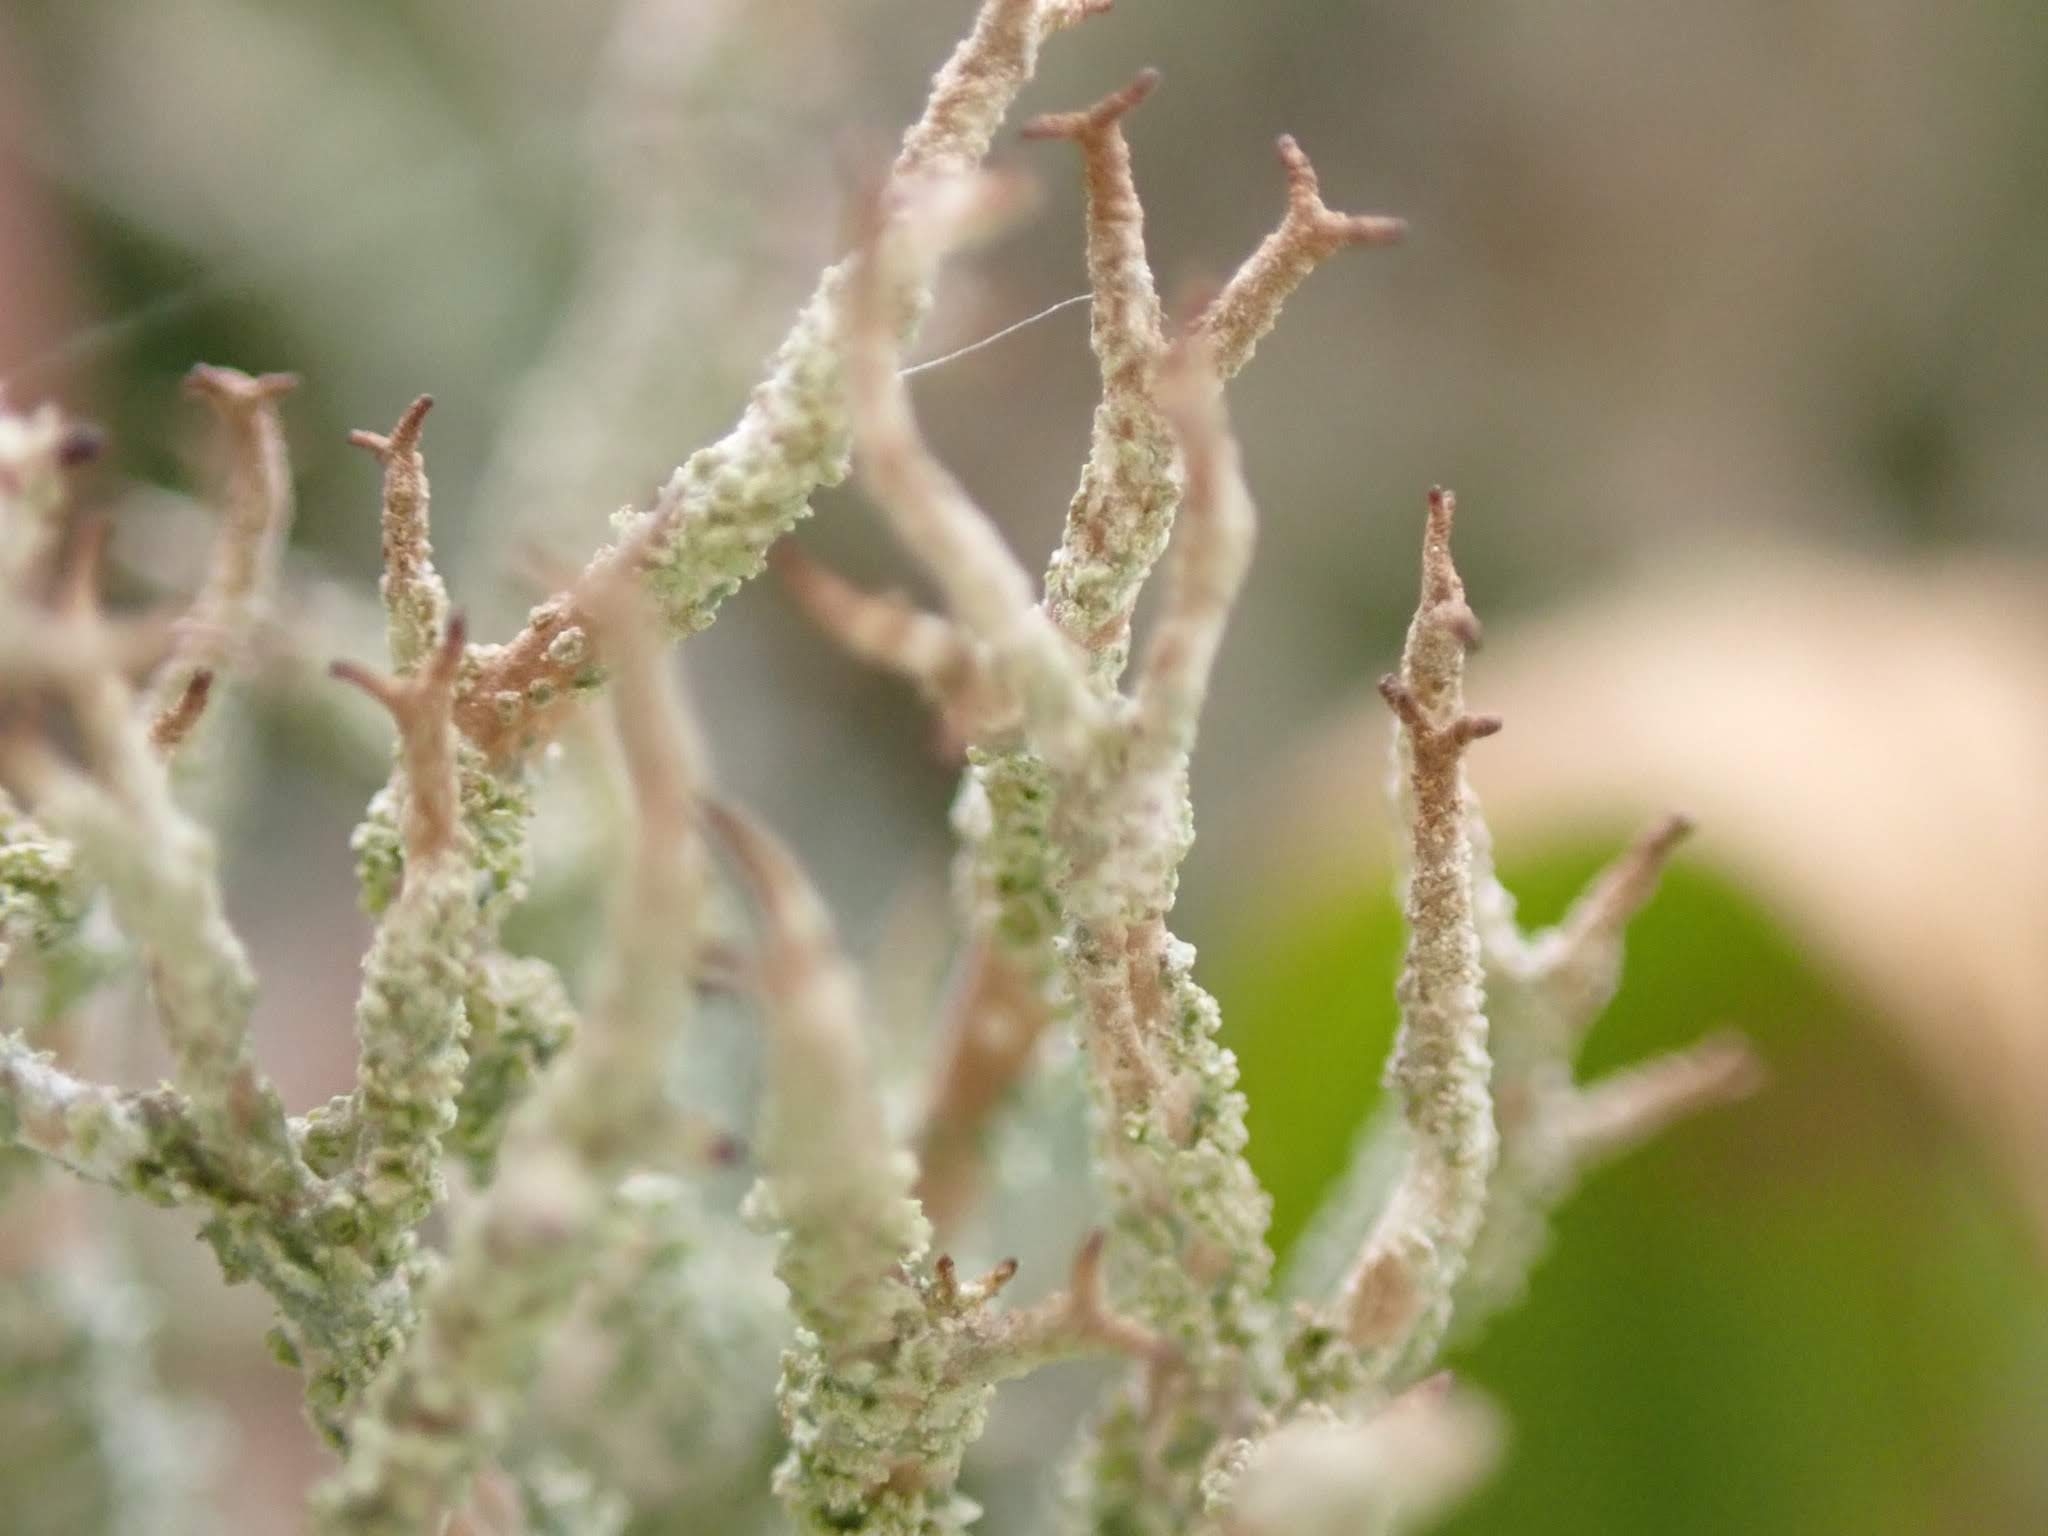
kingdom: Fungi
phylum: Ascomycota
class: Lecanoromycetes
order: Lecanorales
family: Cladoniaceae
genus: Cladonia
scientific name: Cladonia scabriuscula
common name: ru bægerlav
